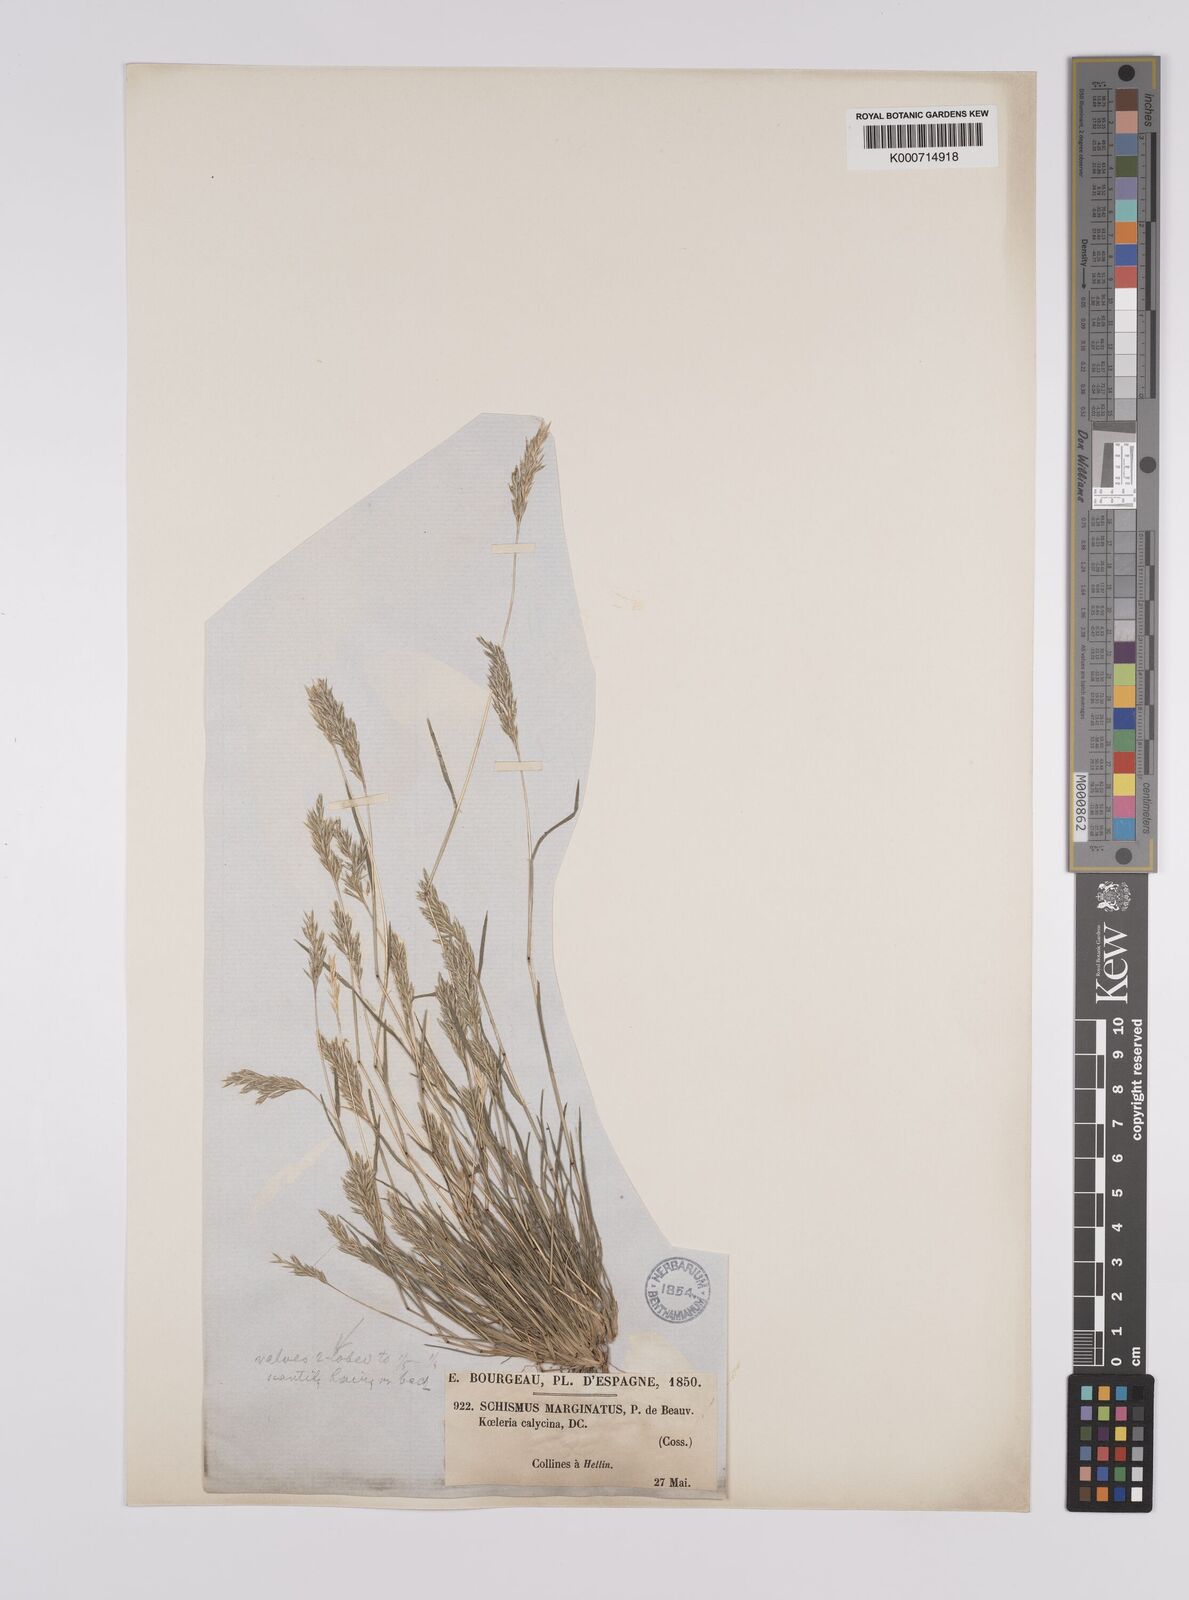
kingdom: Plantae
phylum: Tracheophyta
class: Liliopsida
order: Poales
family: Poaceae
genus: Schismus
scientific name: Schismus barbatus
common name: Kelch-grass
